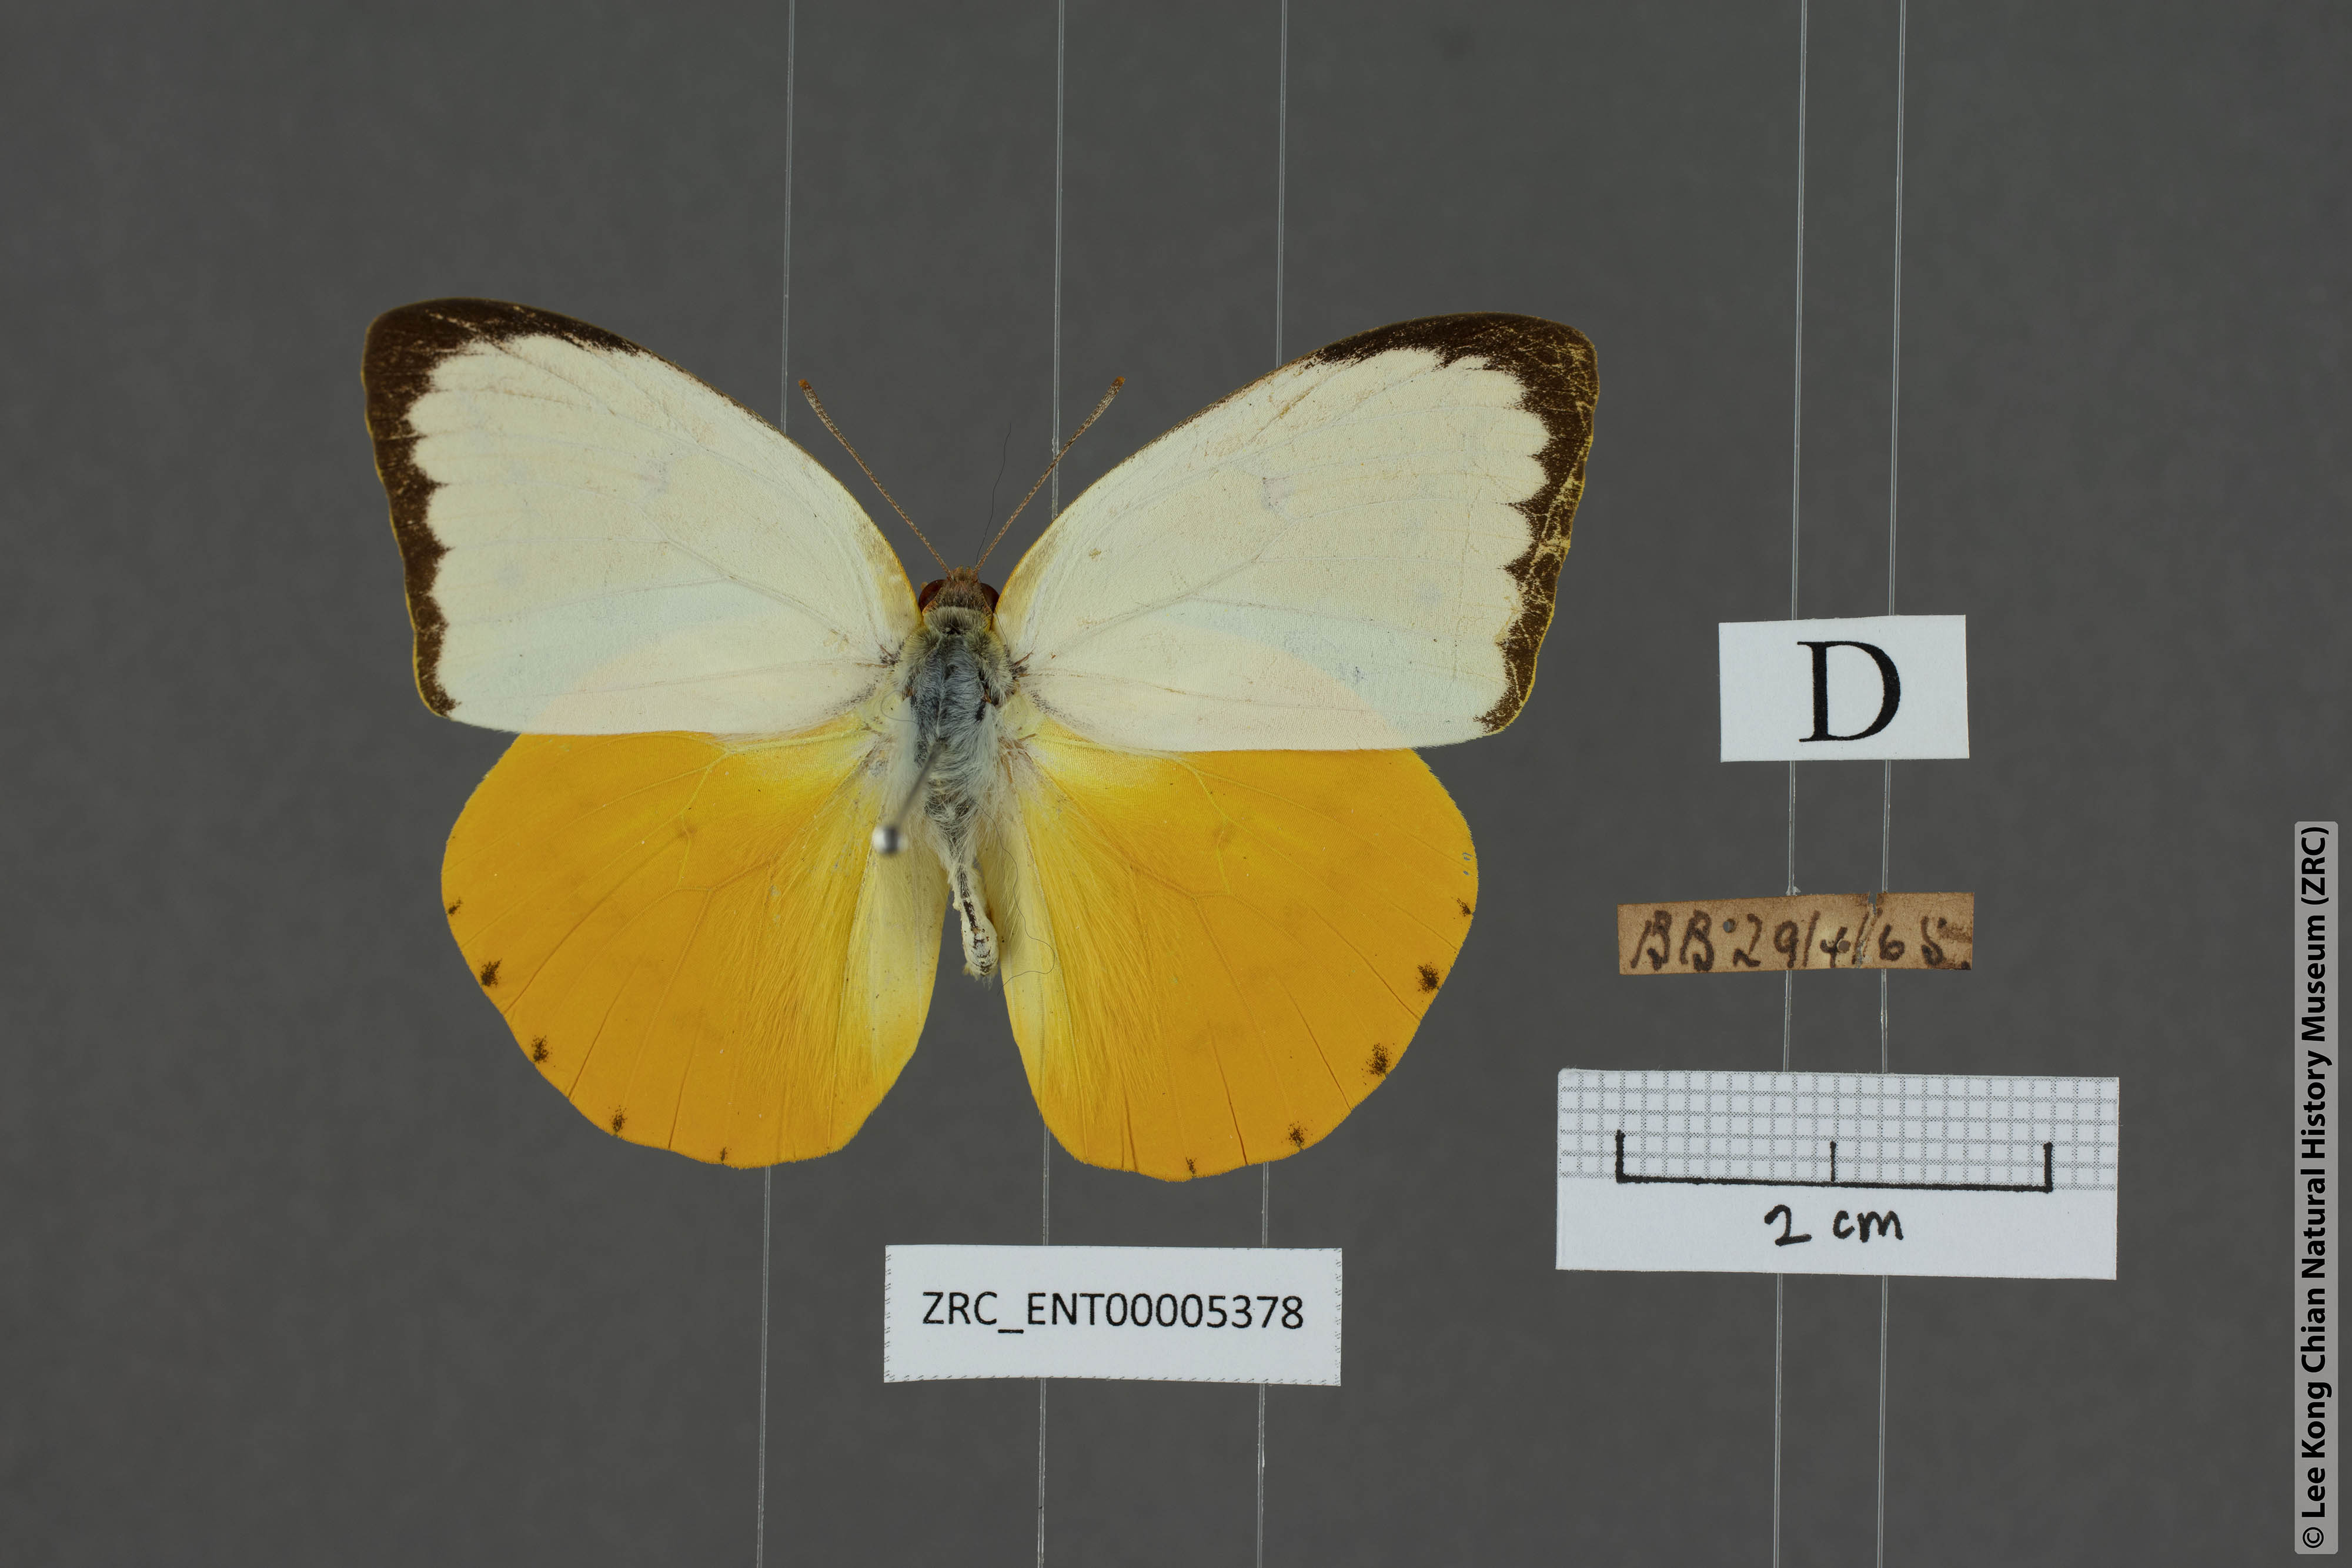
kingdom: Animalia
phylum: Arthropoda
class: Insecta
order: Lepidoptera
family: Pieridae
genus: Catopsilia
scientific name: Catopsilia scylla
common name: Orange emigrant
